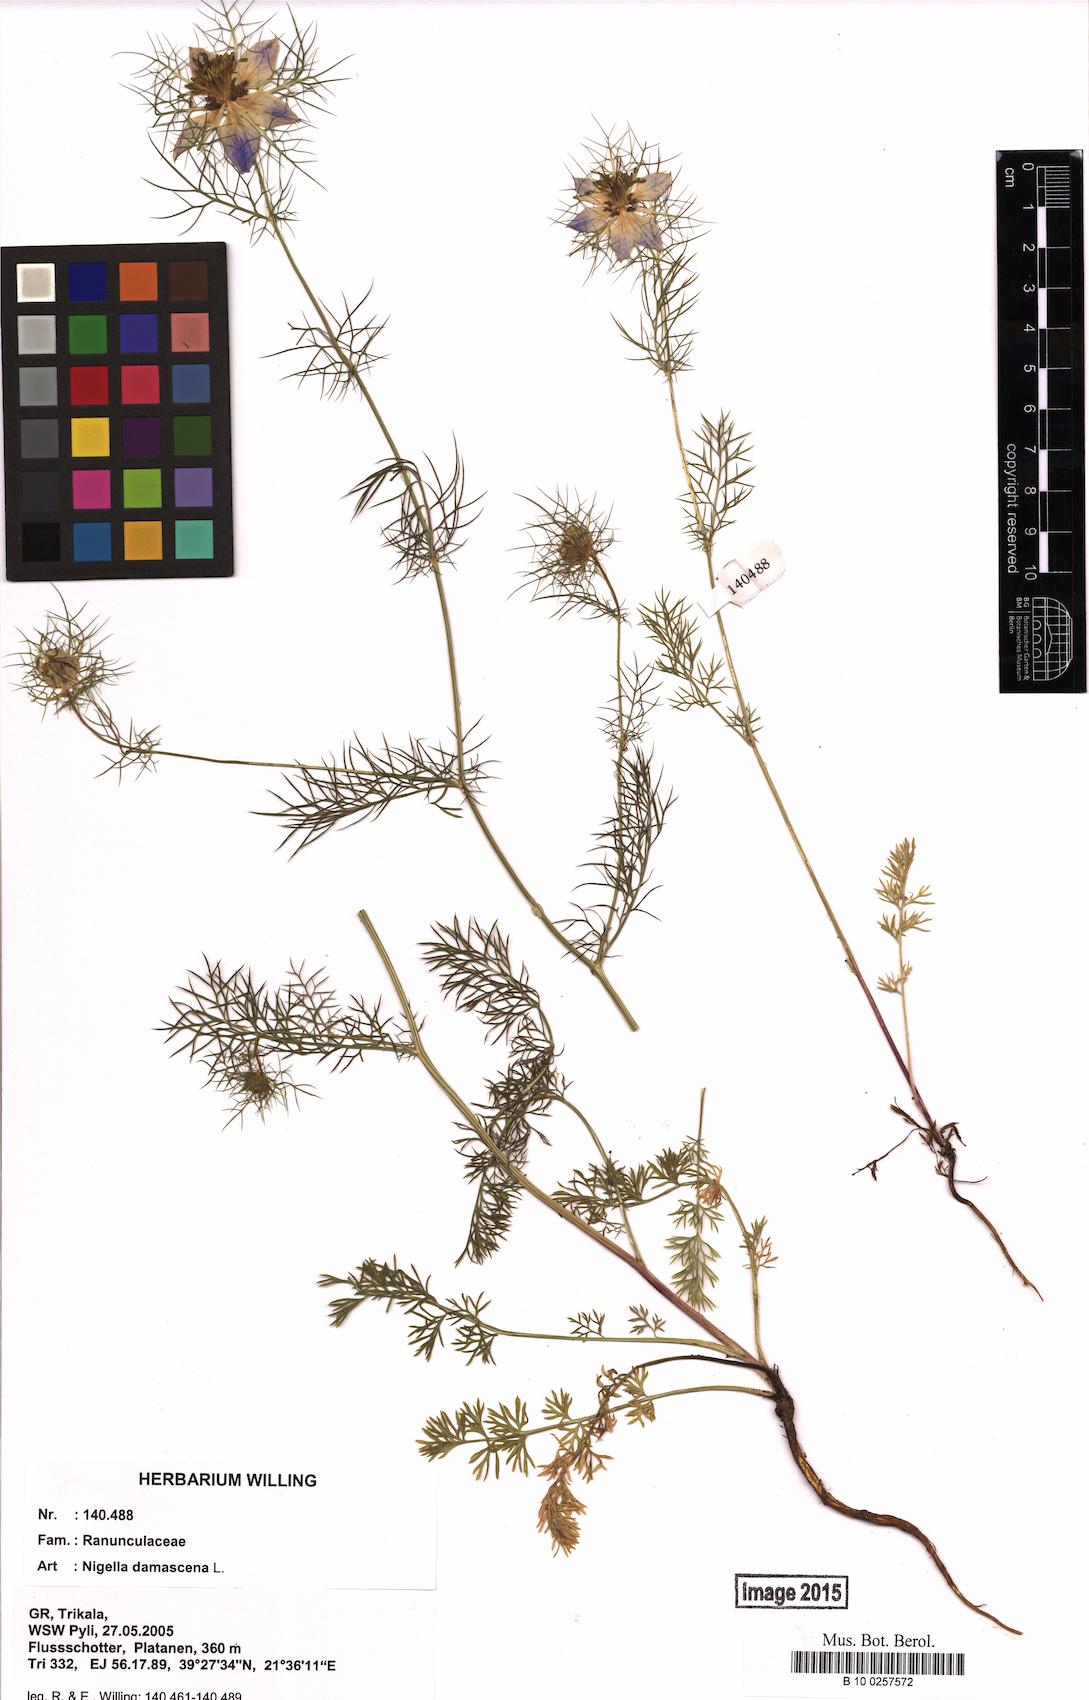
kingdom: Plantae
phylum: Tracheophyta
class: Magnoliopsida
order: Ranunculales
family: Ranunculaceae
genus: Nigella
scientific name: Nigella damascena
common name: Love-in-a-mist
